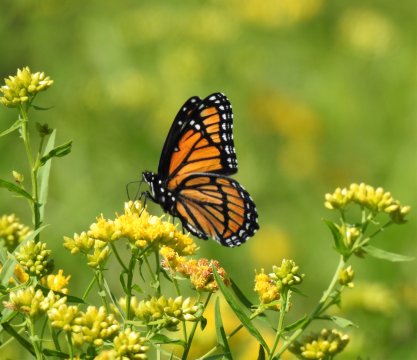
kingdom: Animalia
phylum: Arthropoda
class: Insecta
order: Lepidoptera
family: Nymphalidae
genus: Limenitis
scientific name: Limenitis archippus
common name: Viceroy
